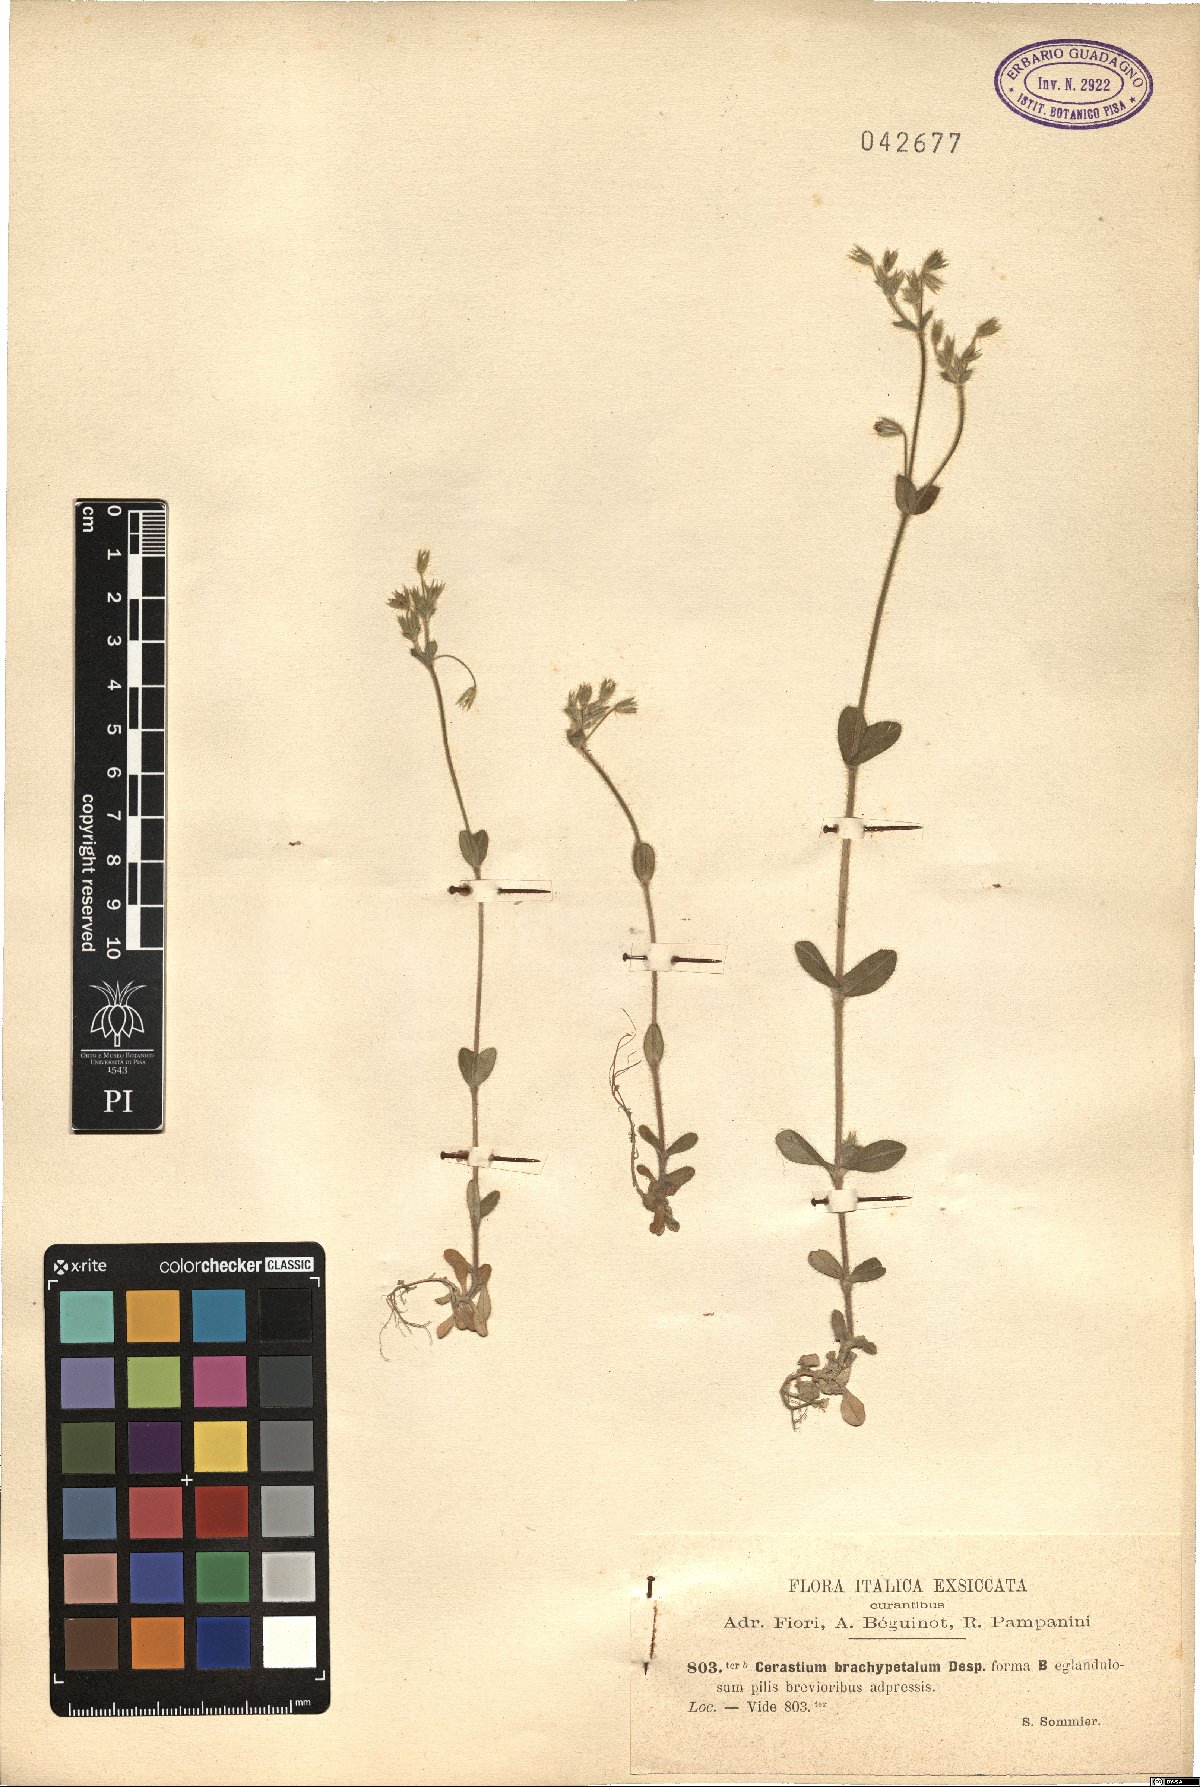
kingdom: Plantae
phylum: Tracheophyta
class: Magnoliopsida
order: Caryophyllales
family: Caryophyllaceae
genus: Cerastium
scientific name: Cerastium brachypetalum
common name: Grey mouse-ear
